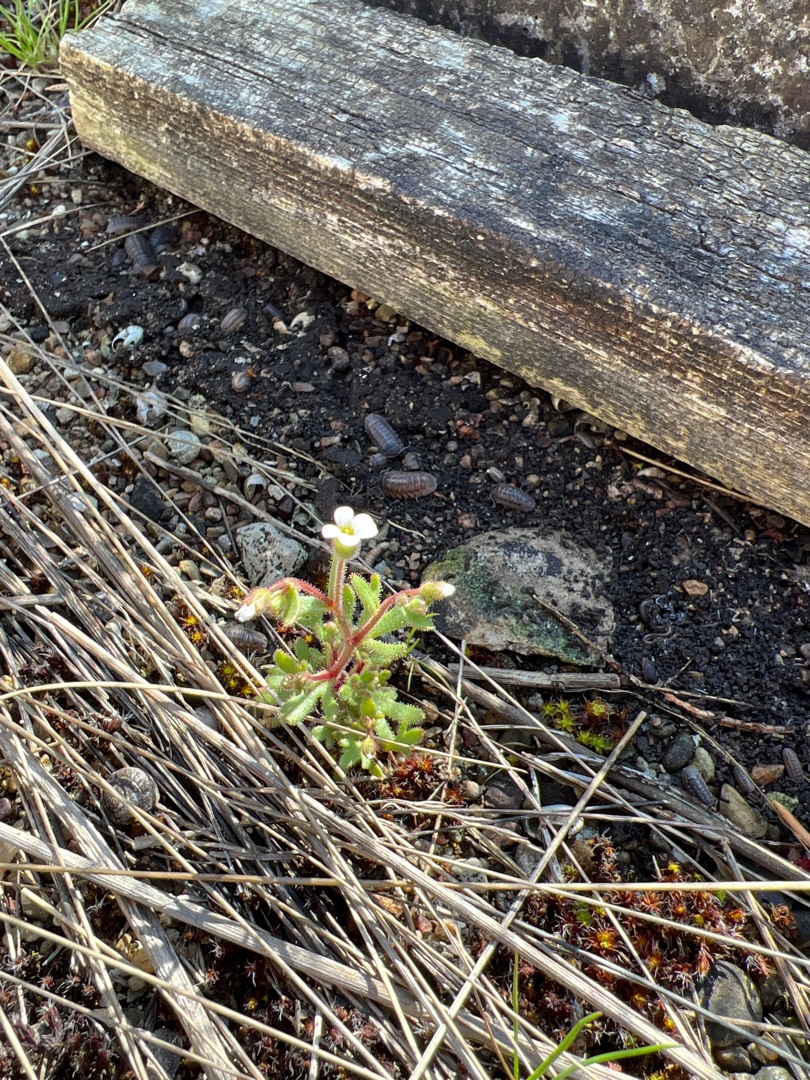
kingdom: Plantae
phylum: Tracheophyta
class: Magnoliopsida
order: Saxifragales
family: Saxifragaceae
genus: Saxifraga
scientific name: Saxifraga tridactylites
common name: Trekløft-stenbræk
